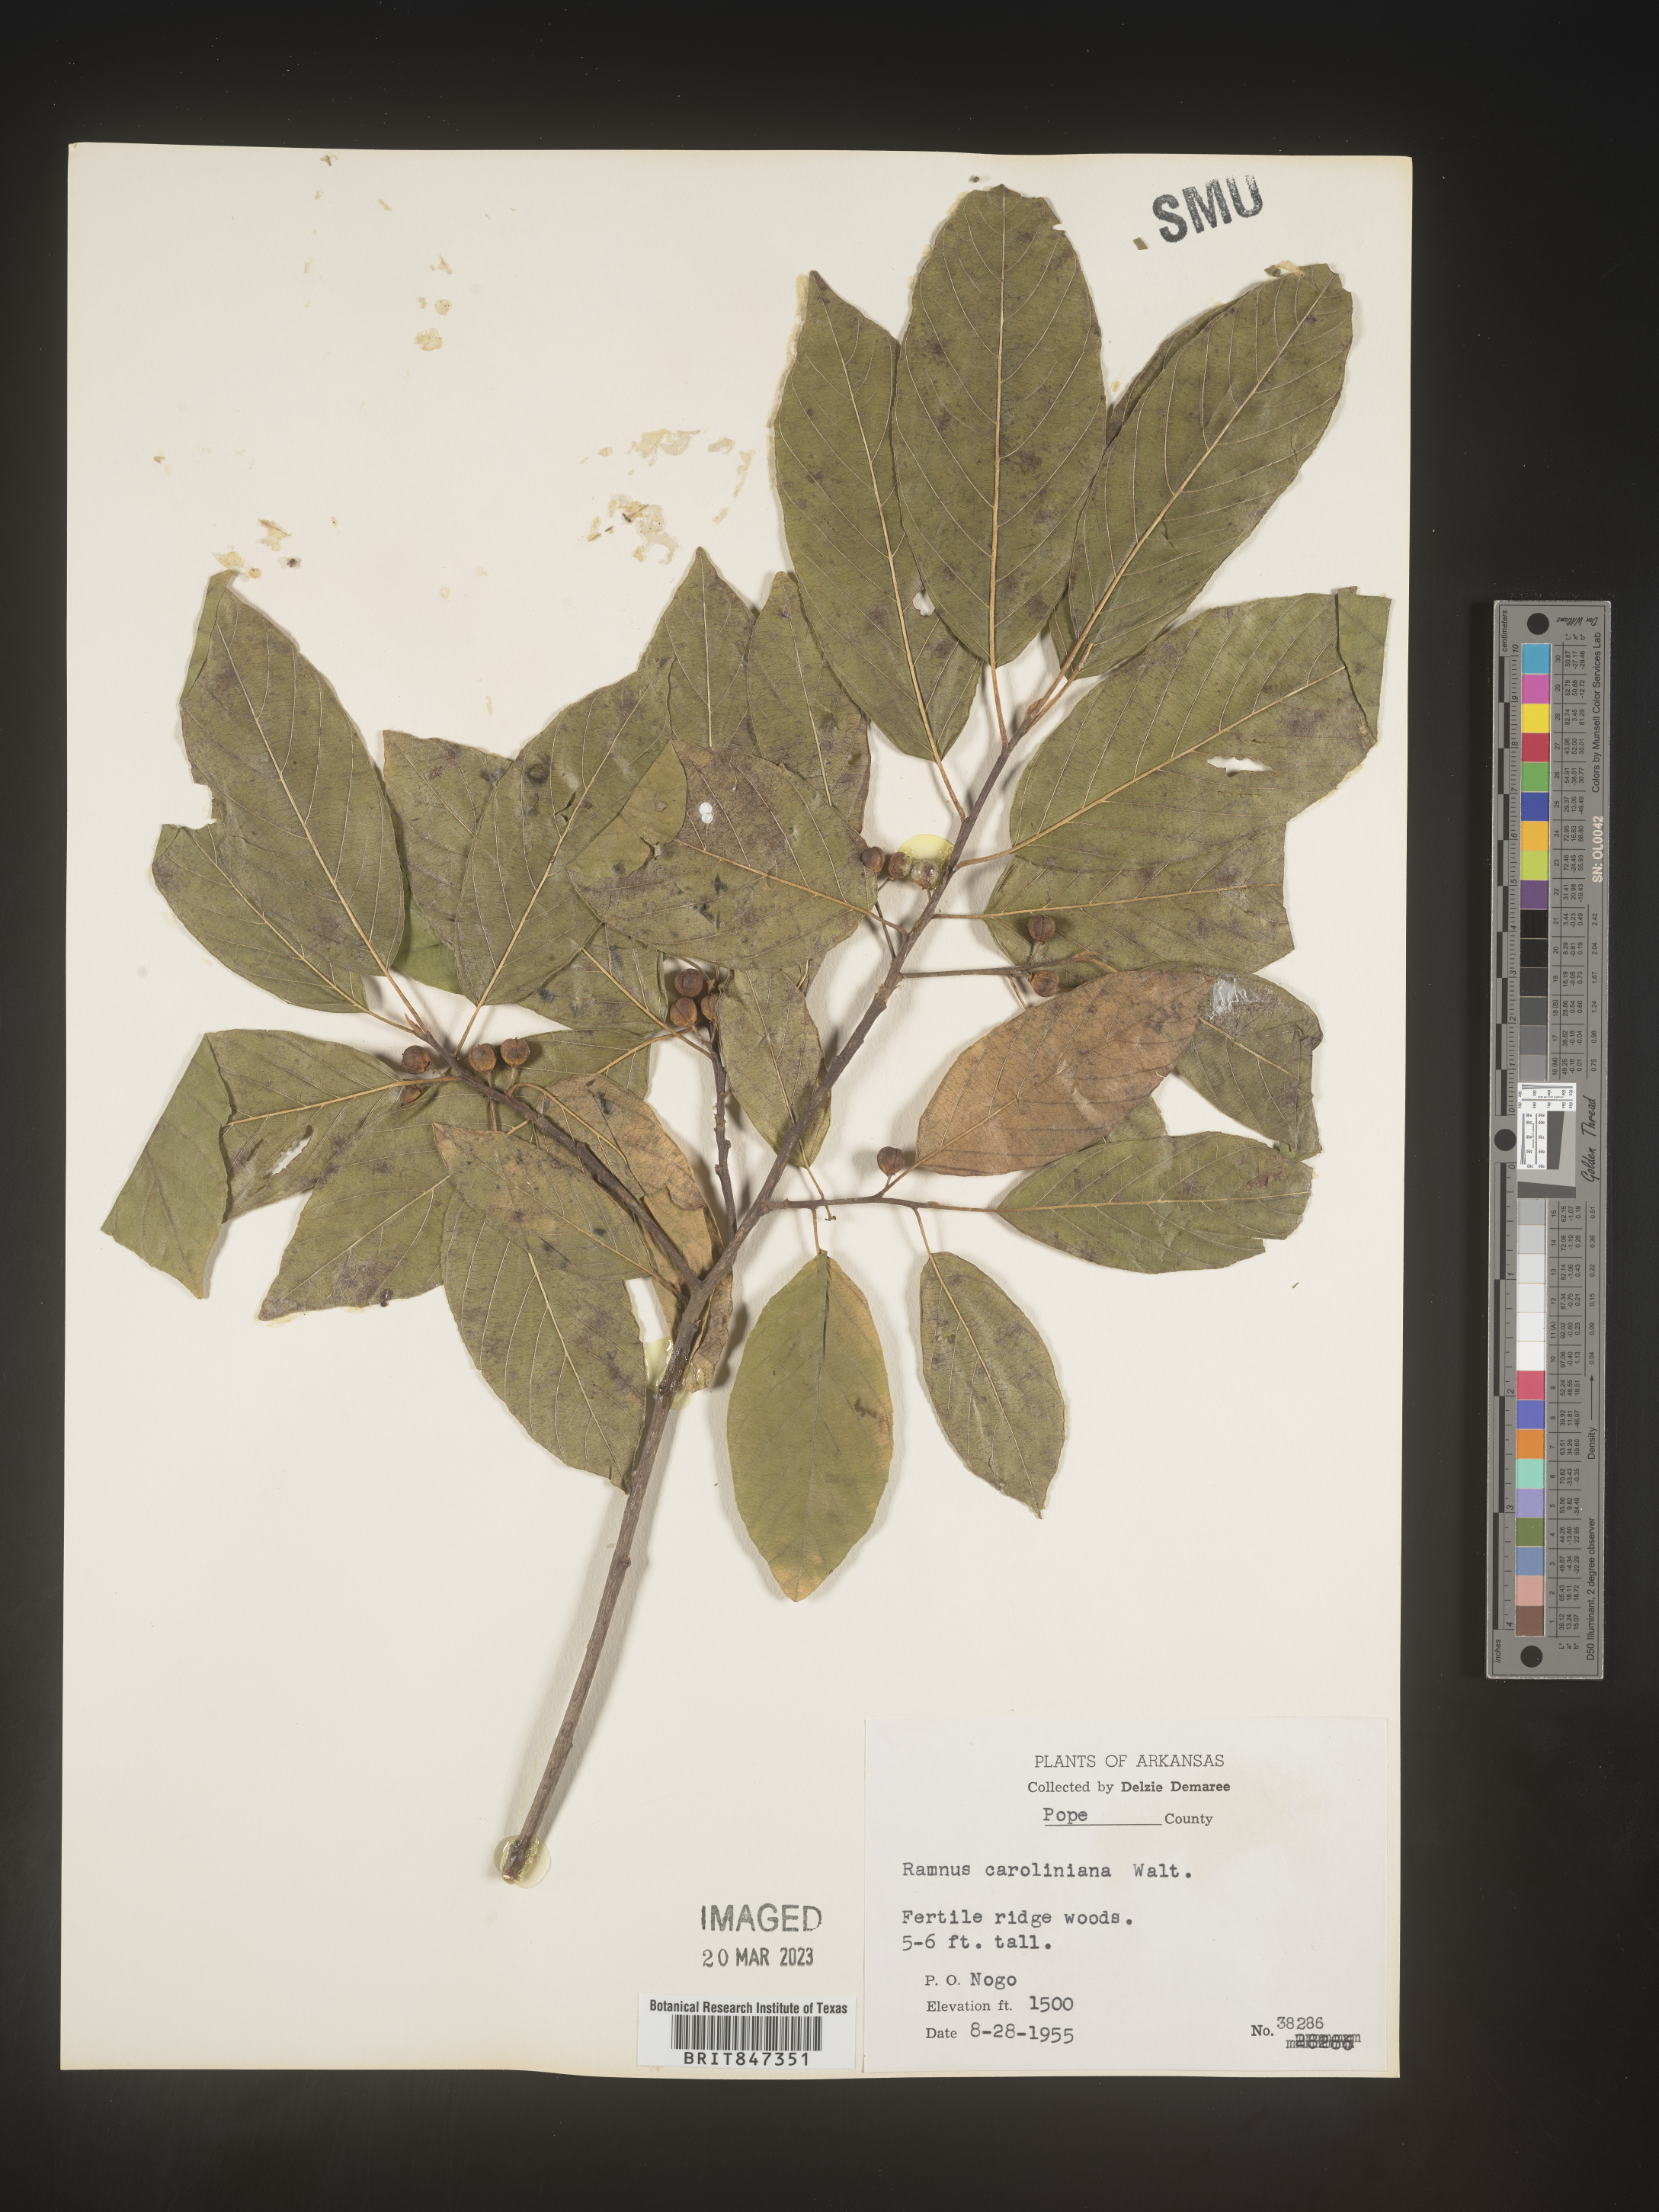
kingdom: Plantae
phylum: Tracheophyta
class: Magnoliopsida
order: Rosales
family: Rhamnaceae
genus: Frangula
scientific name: Frangula caroliniana
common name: Carolina buckthorn
